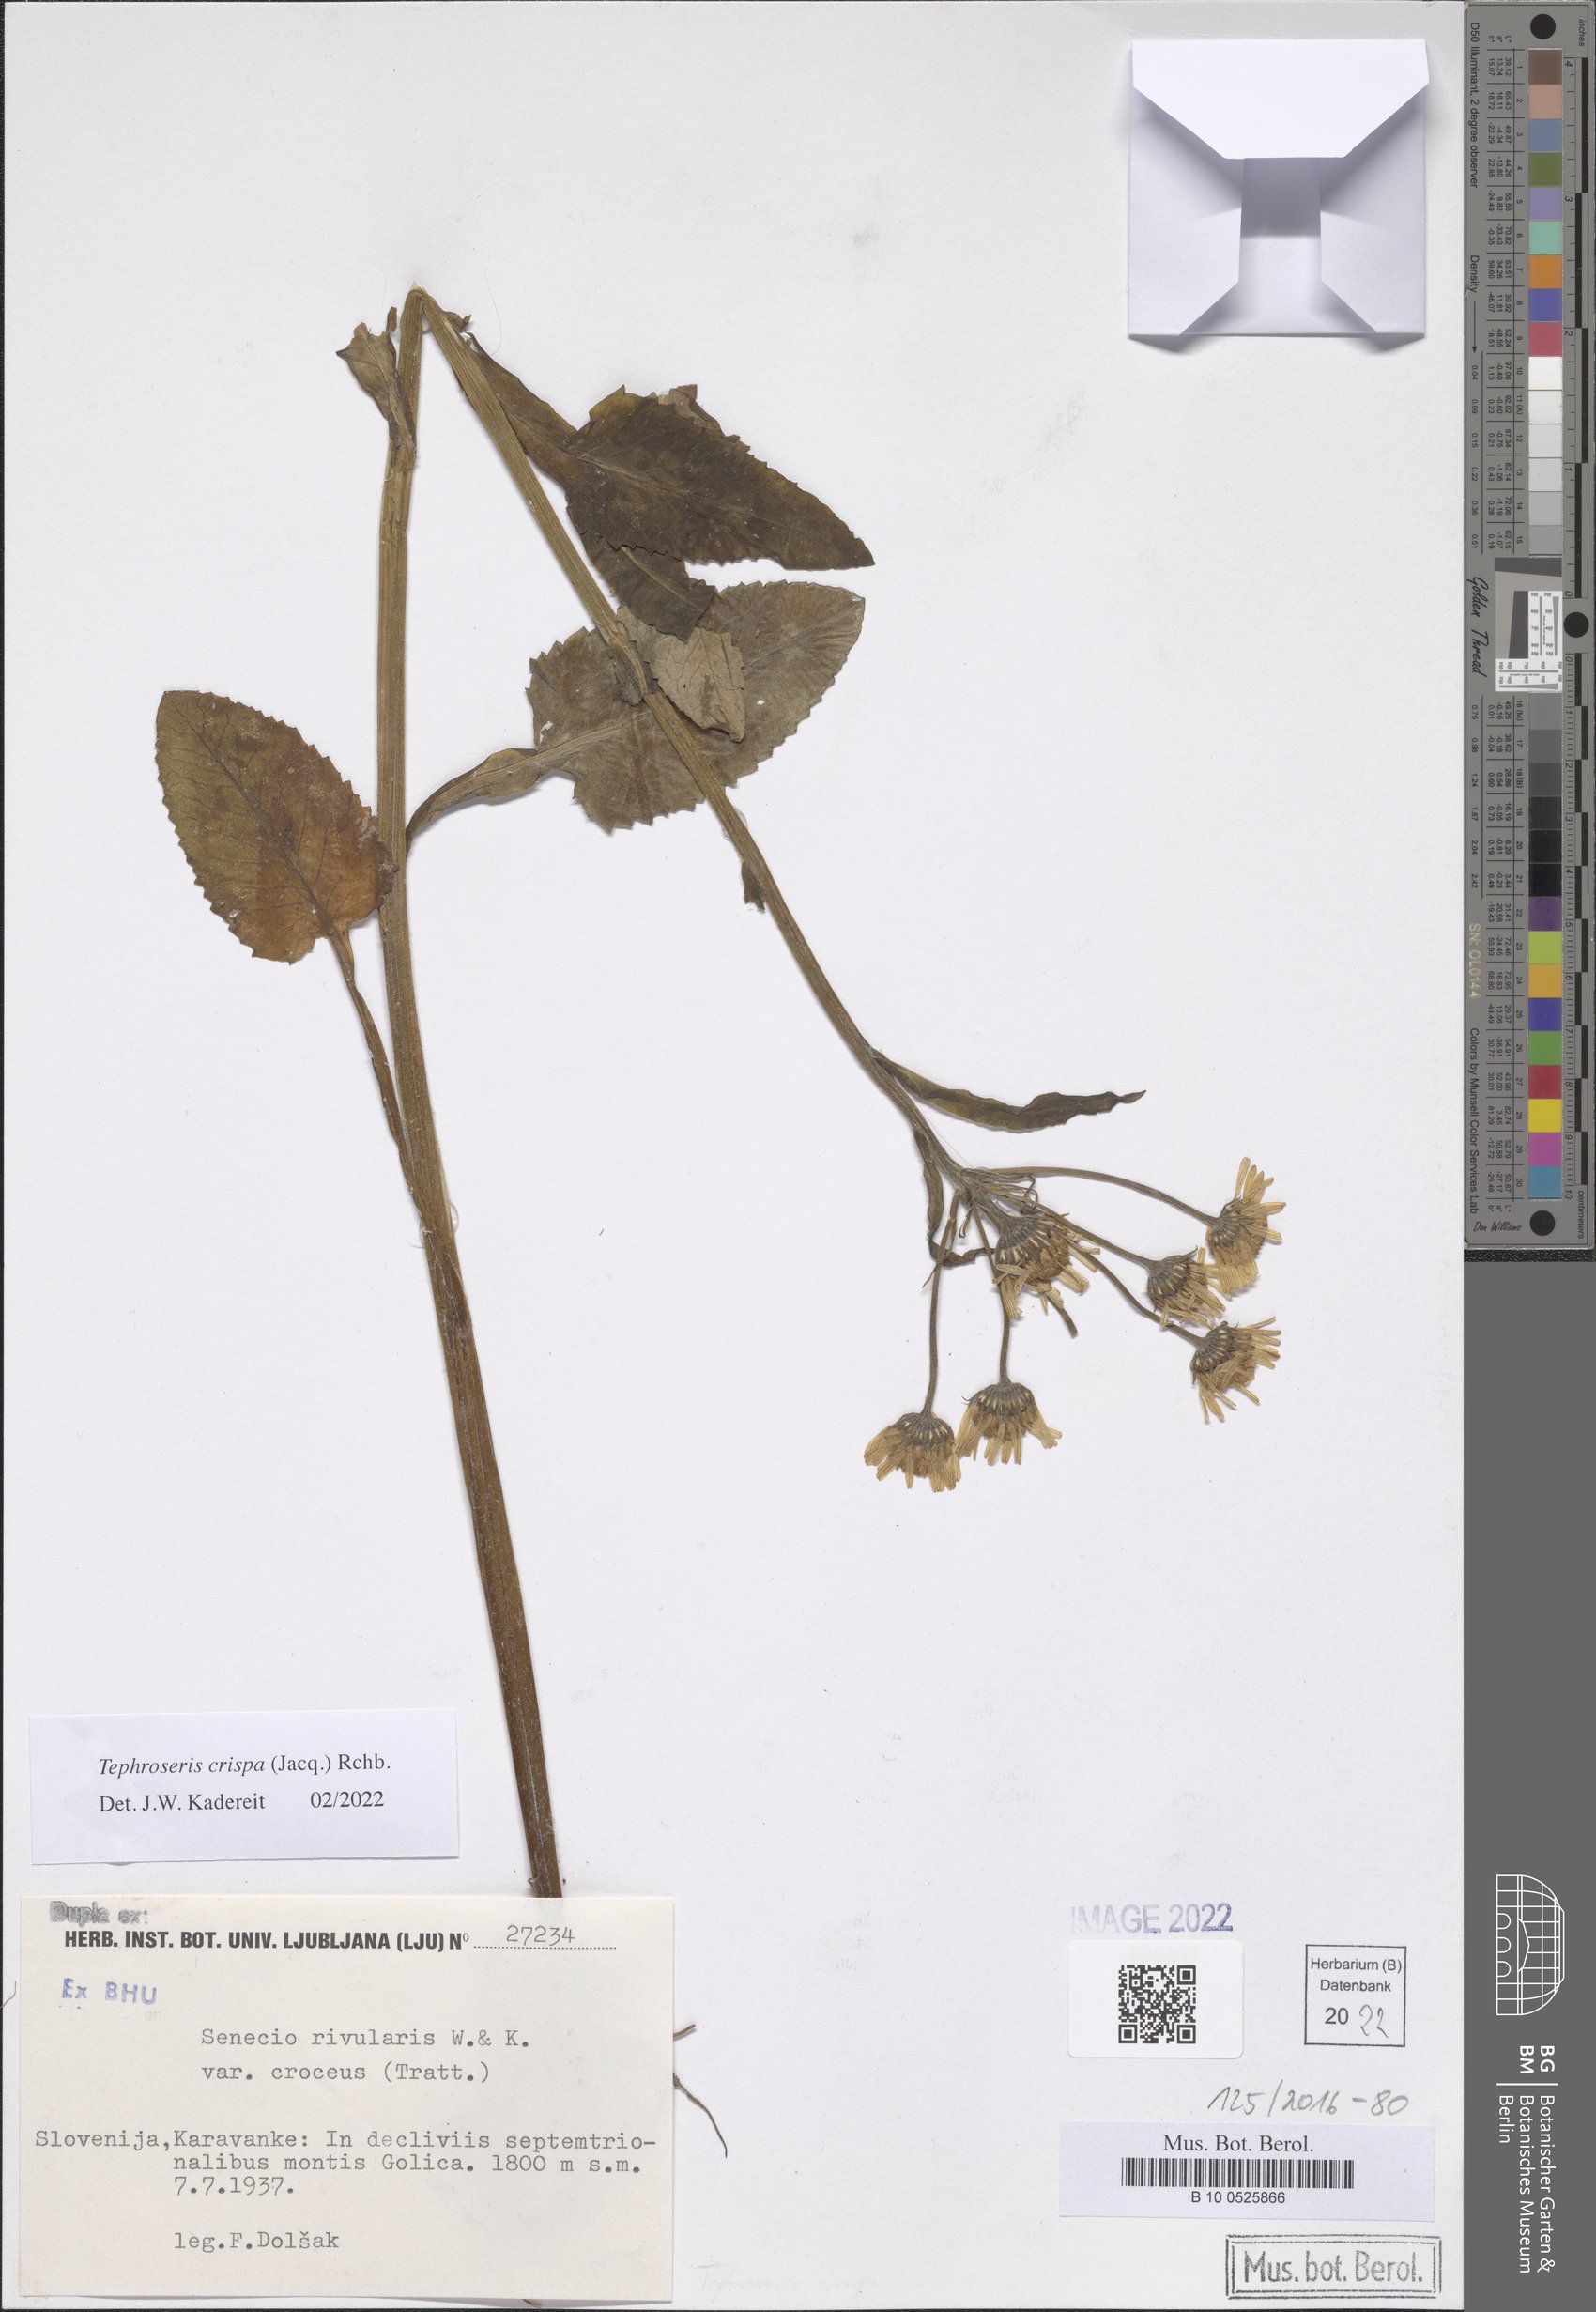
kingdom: Plantae
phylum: Tracheophyta
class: Magnoliopsida
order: Asterales
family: Asteraceae
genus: Tephroseris
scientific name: Tephroseris crispa
